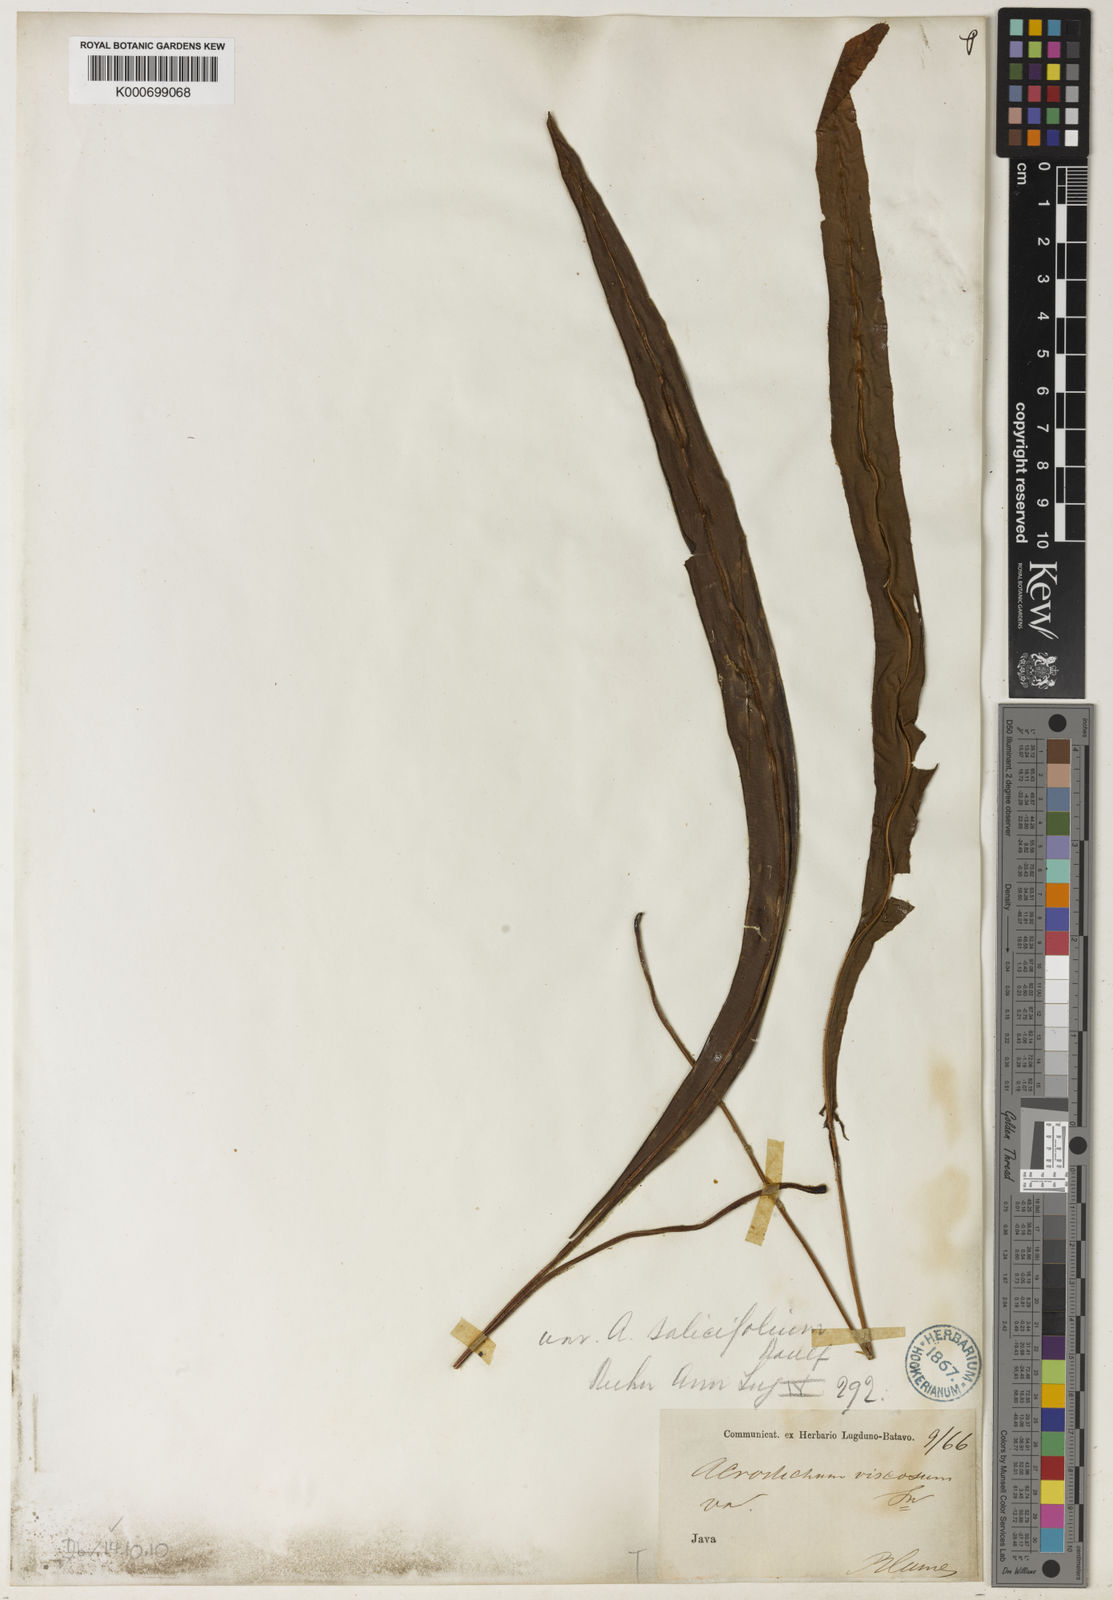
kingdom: Plantae
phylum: Tracheophyta
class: Polypodiopsida
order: Polypodiales
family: Dryopteridaceae
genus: Elaphoglossum
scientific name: Elaphoglossum blumeanum
